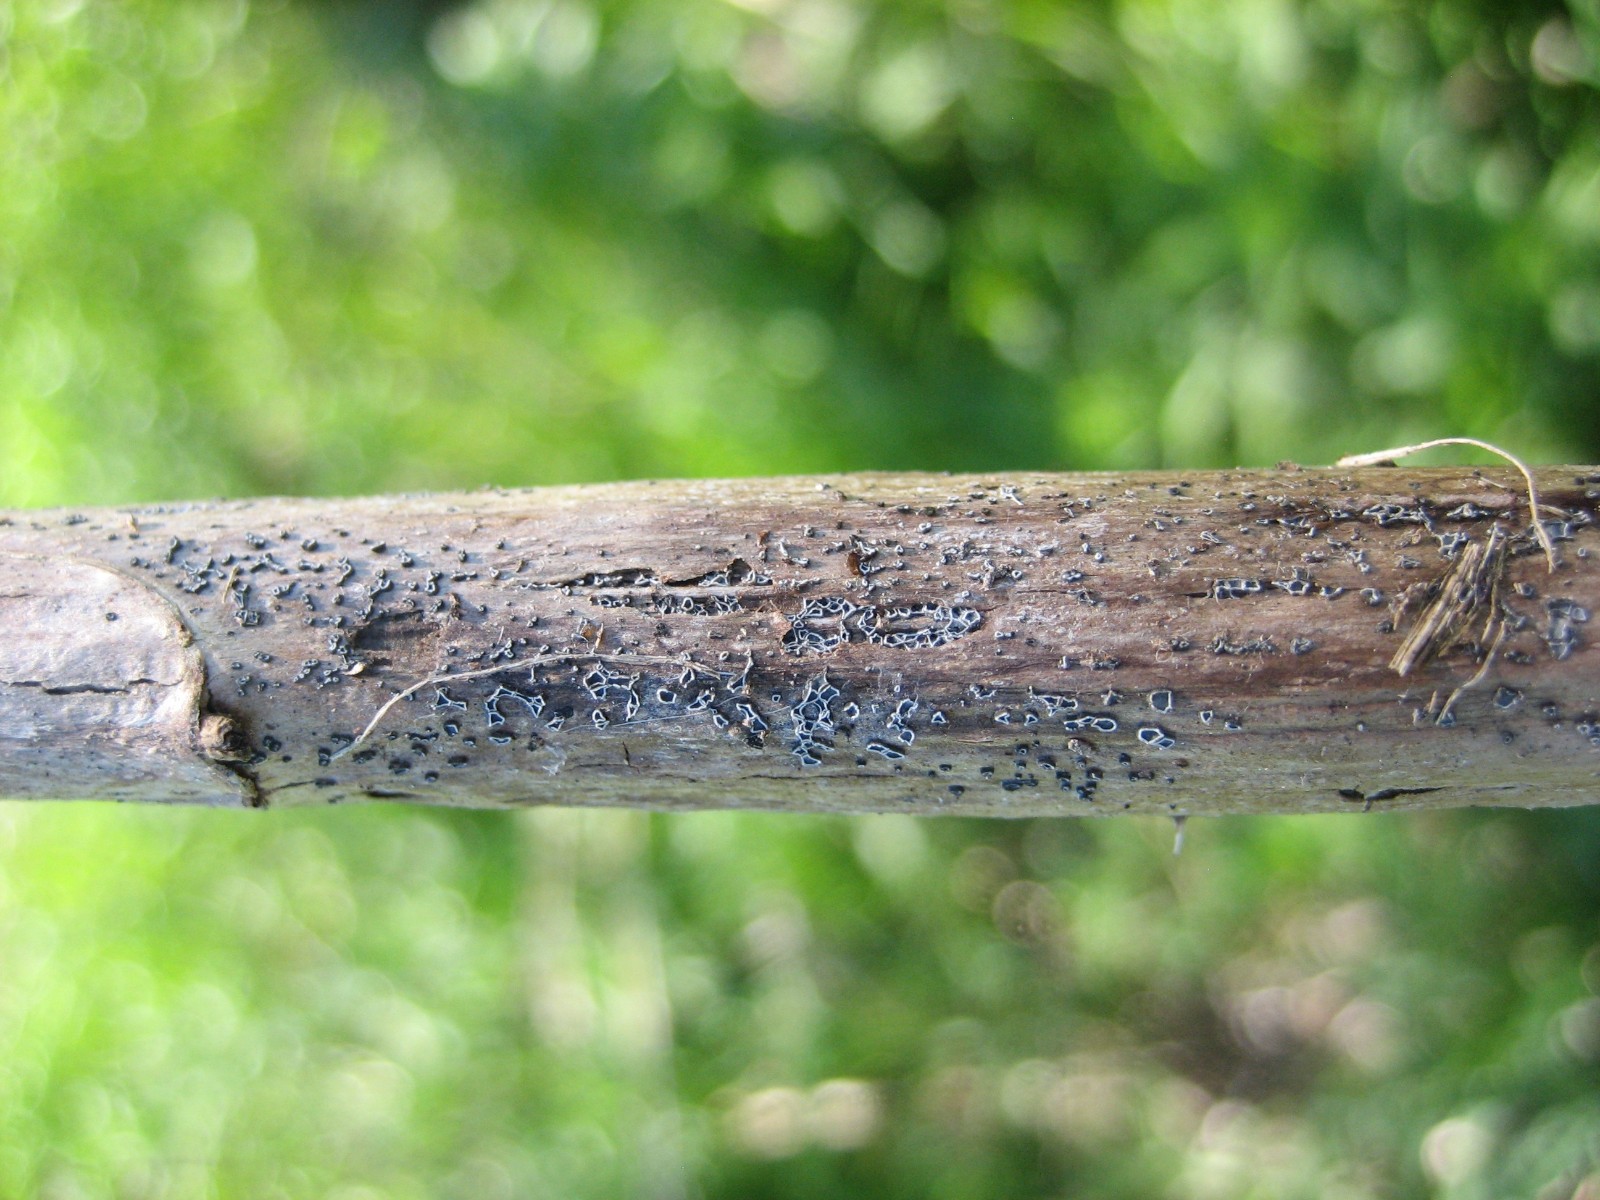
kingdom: Fungi
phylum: Ascomycota
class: Leotiomycetes
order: Helotiales
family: Mollisiaceae
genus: Mollisia
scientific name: Mollisia
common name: gråskive
